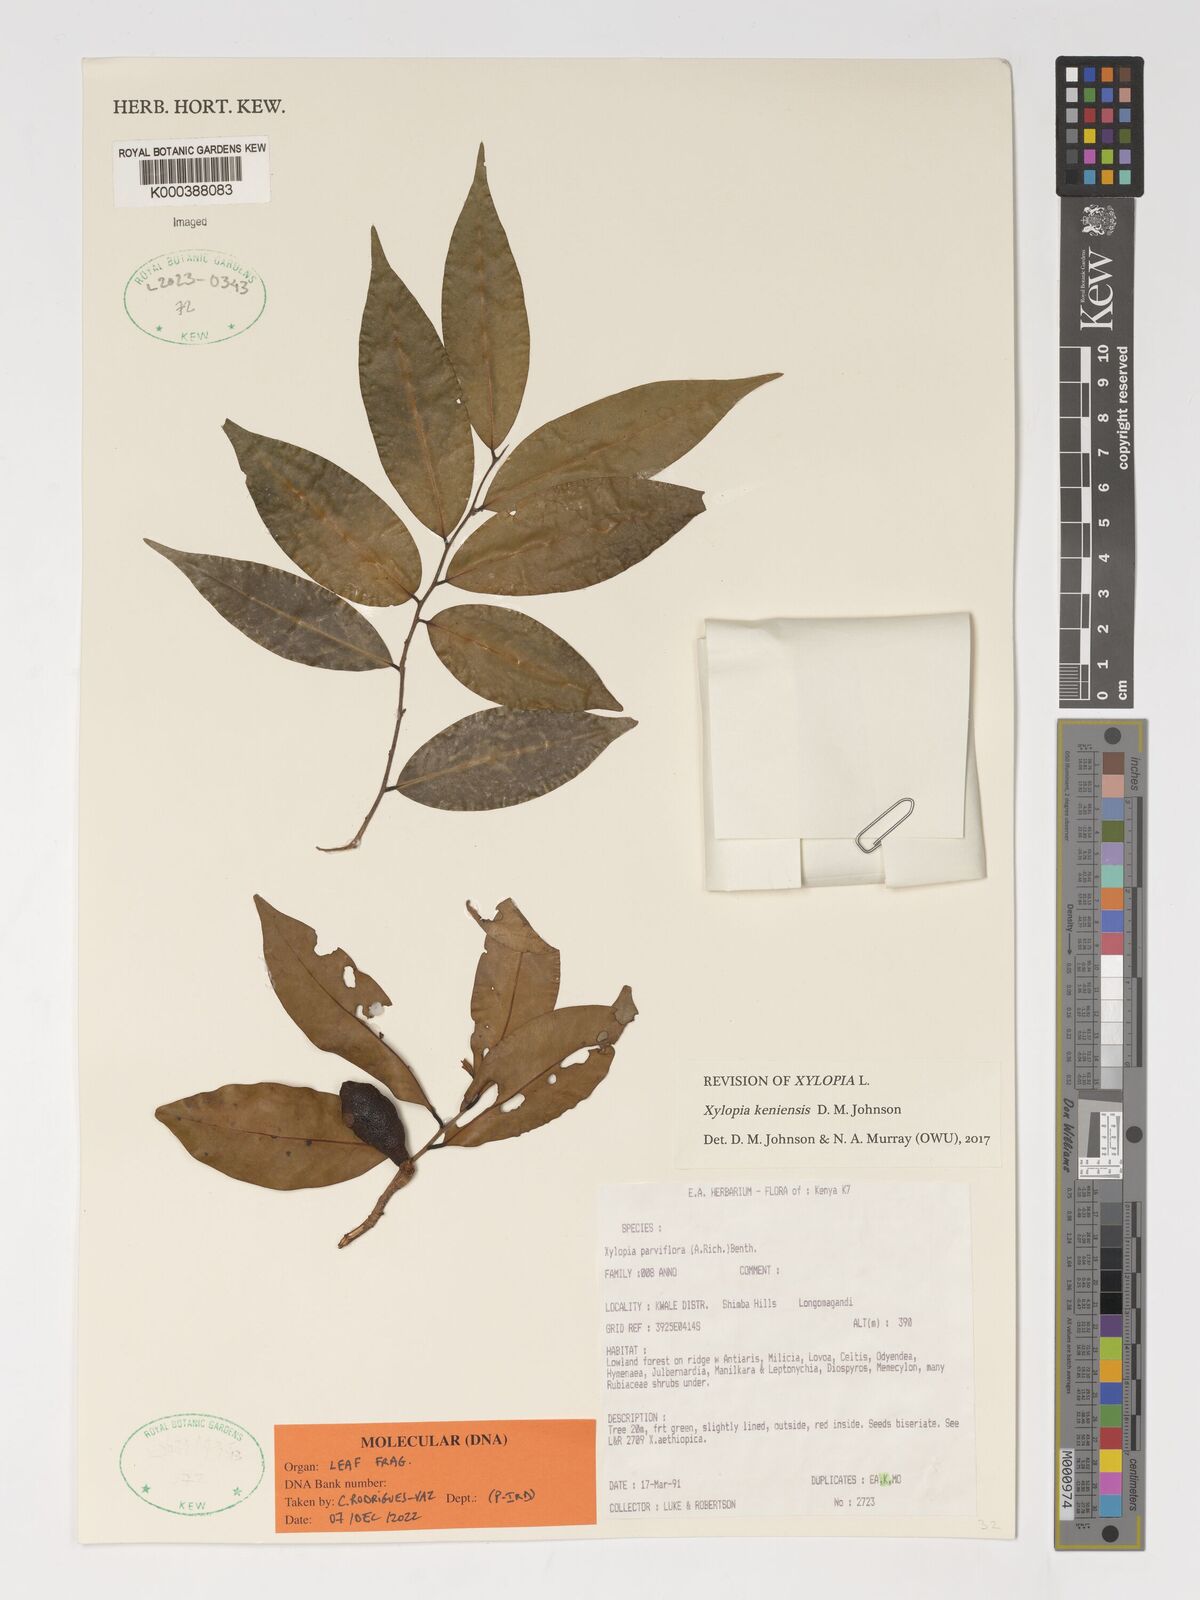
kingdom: Plantae
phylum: Tracheophyta
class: Magnoliopsida
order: Magnoliales
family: Annonaceae
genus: Xylopia
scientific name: Xylopia keniensis
